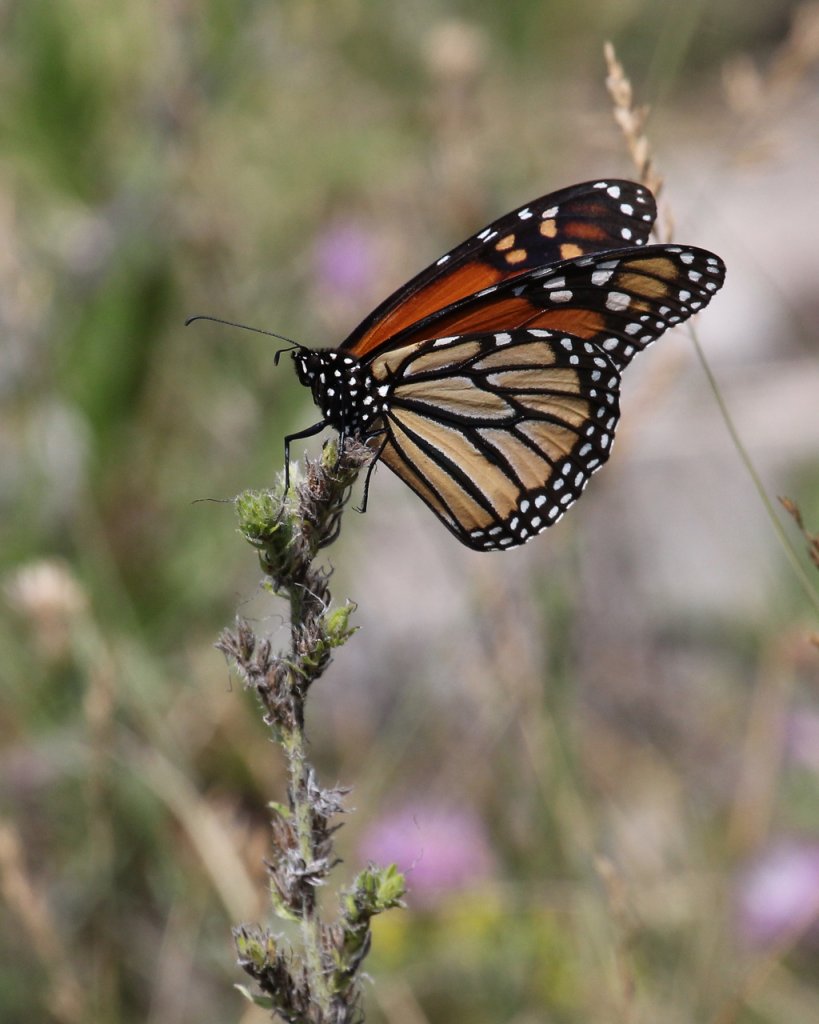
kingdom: Animalia
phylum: Arthropoda
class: Insecta
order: Lepidoptera
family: Nymphalidae
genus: Danaus
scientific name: Danaus plexippus
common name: Monarch
